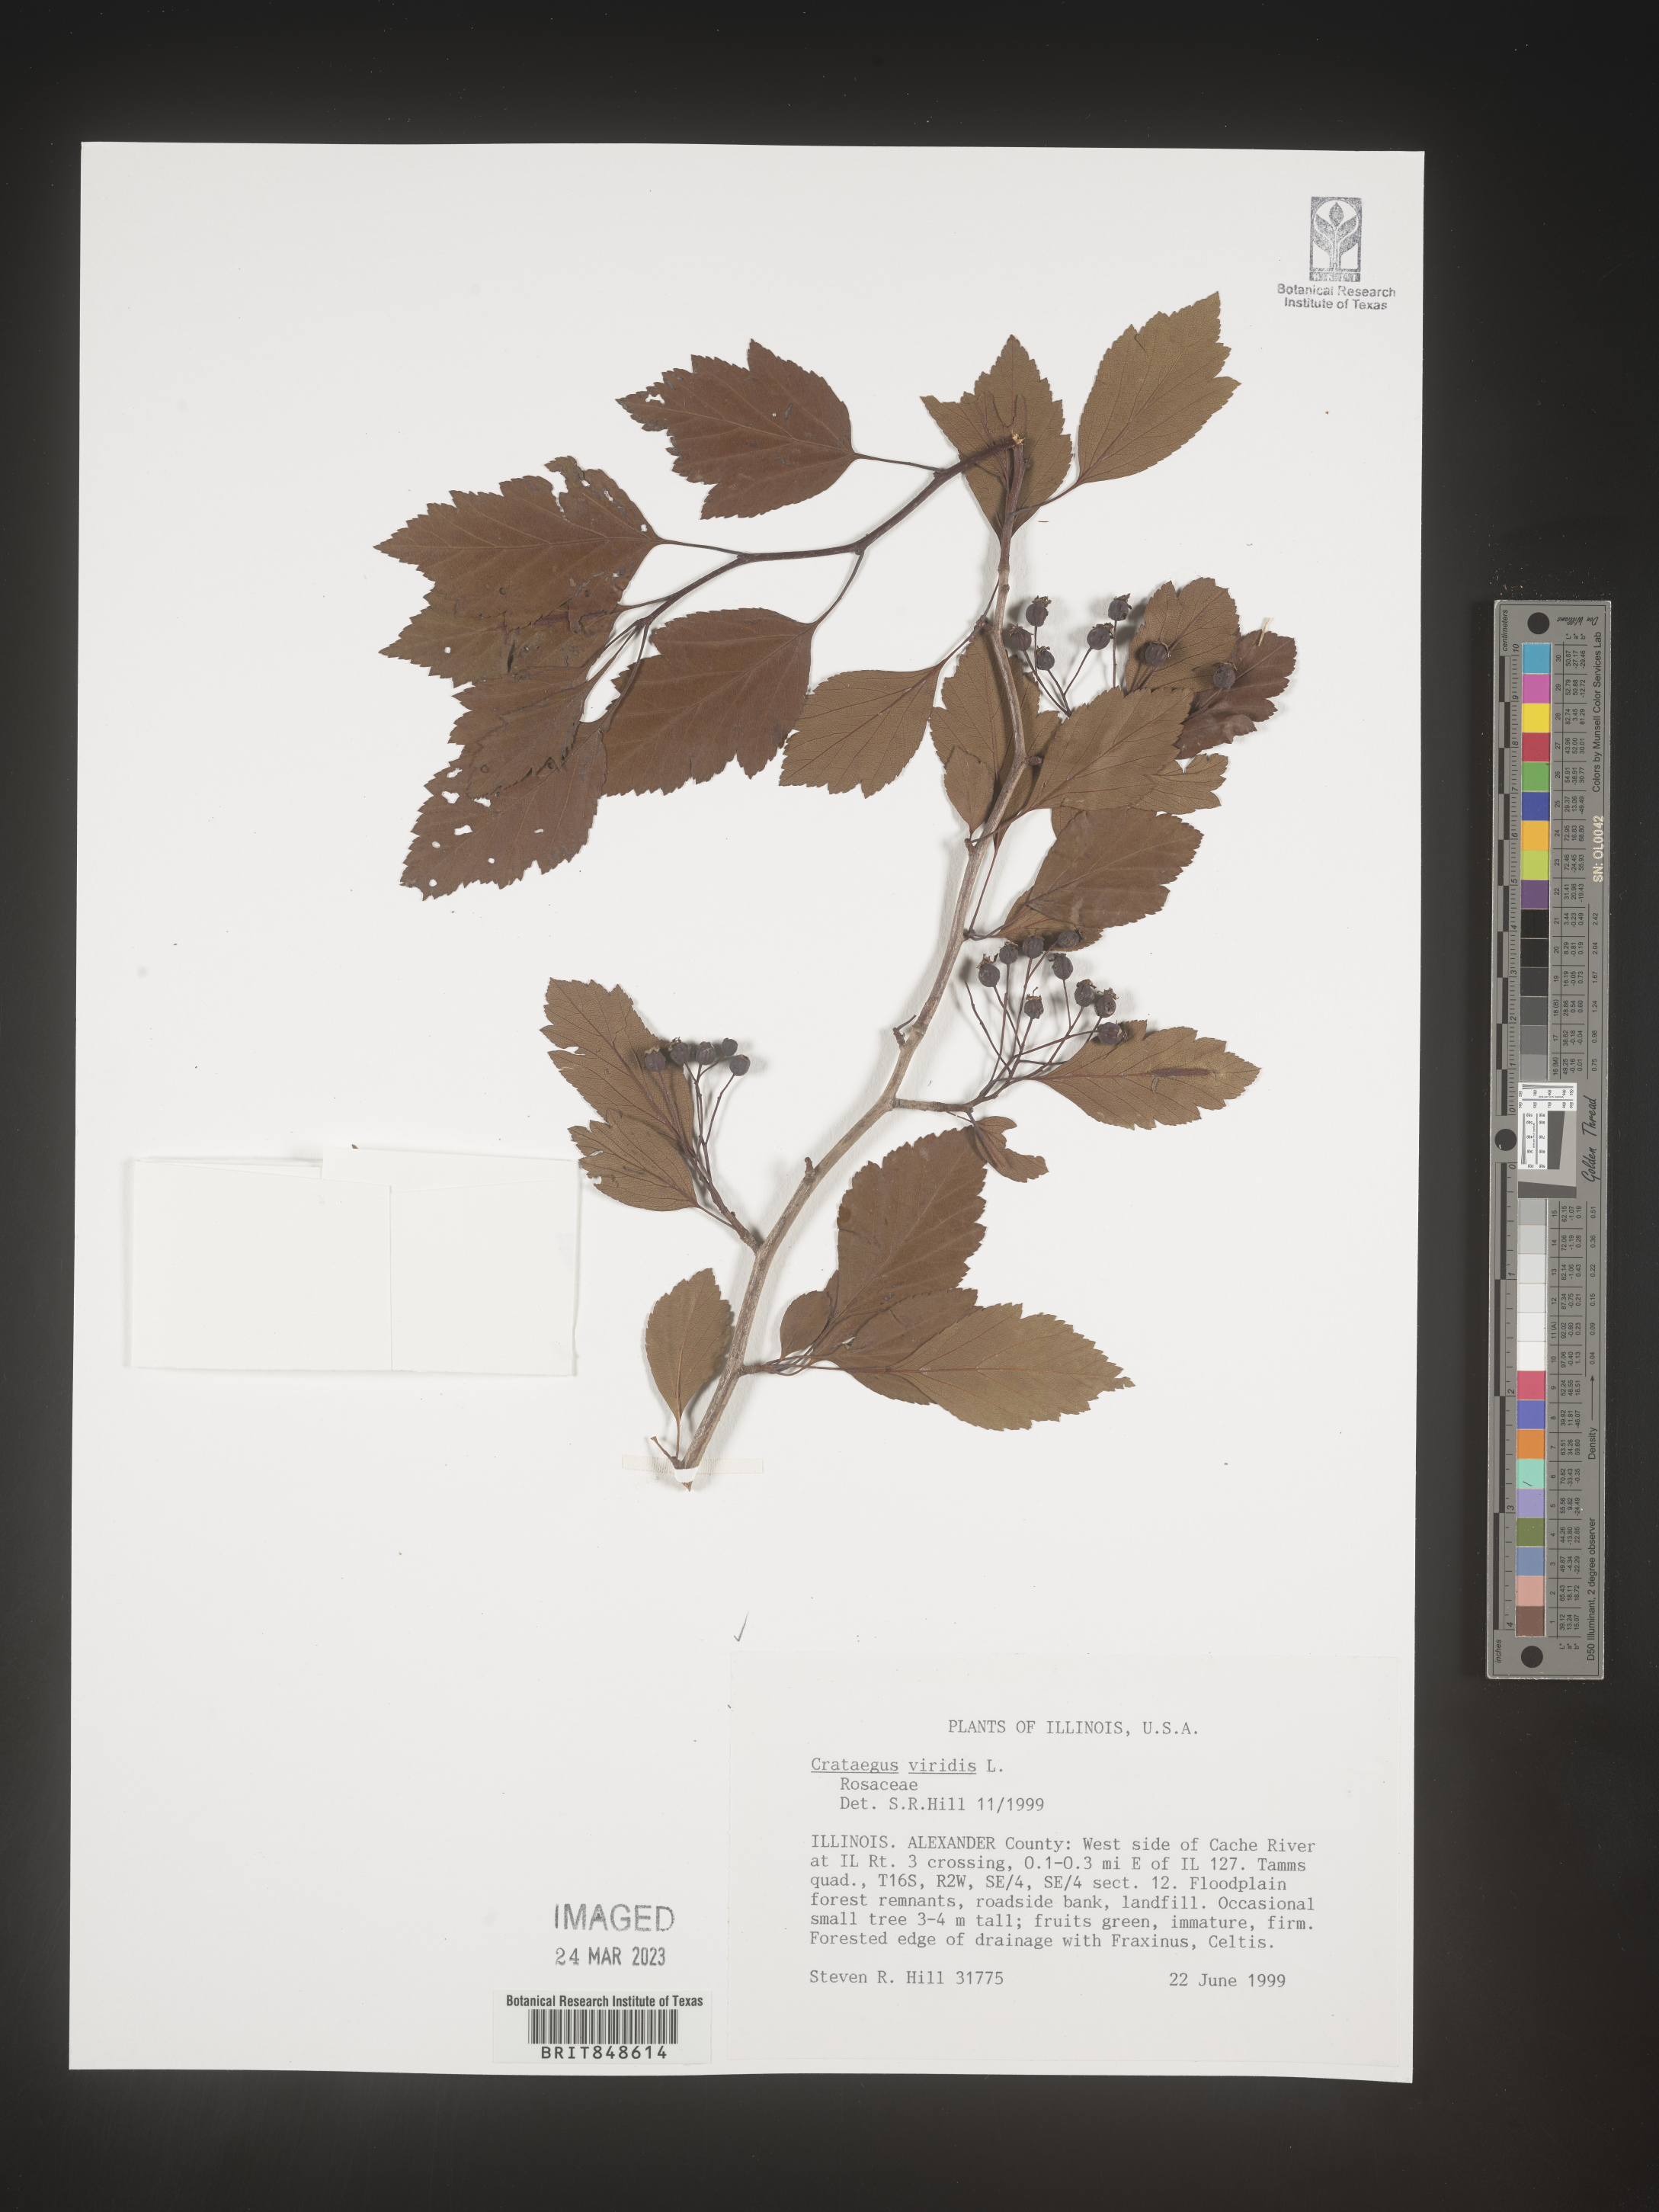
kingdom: Plantae
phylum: Tracheophyta
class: Magnoliopsida
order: Rosales
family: Rosaceae
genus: Crataegus
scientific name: Crataegus viridis
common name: Southernthorn
